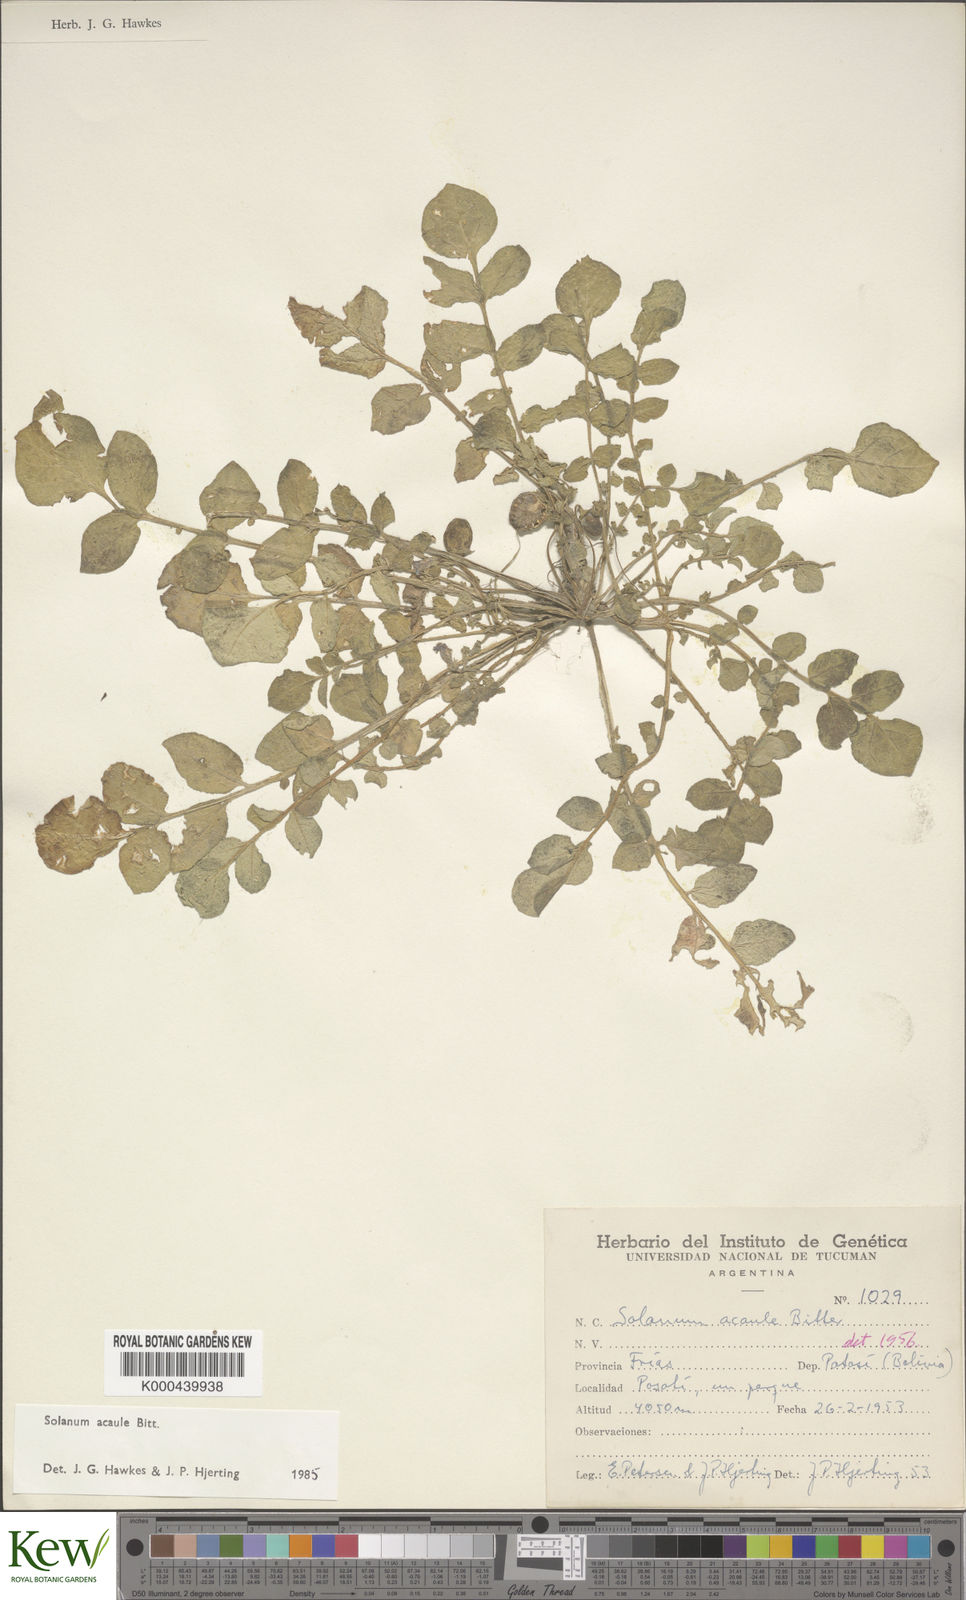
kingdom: Plantae
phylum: Tracheophyta
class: Magnoliopsida
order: Solanales
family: Solanaceae
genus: Solanum
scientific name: Solanum acaule
